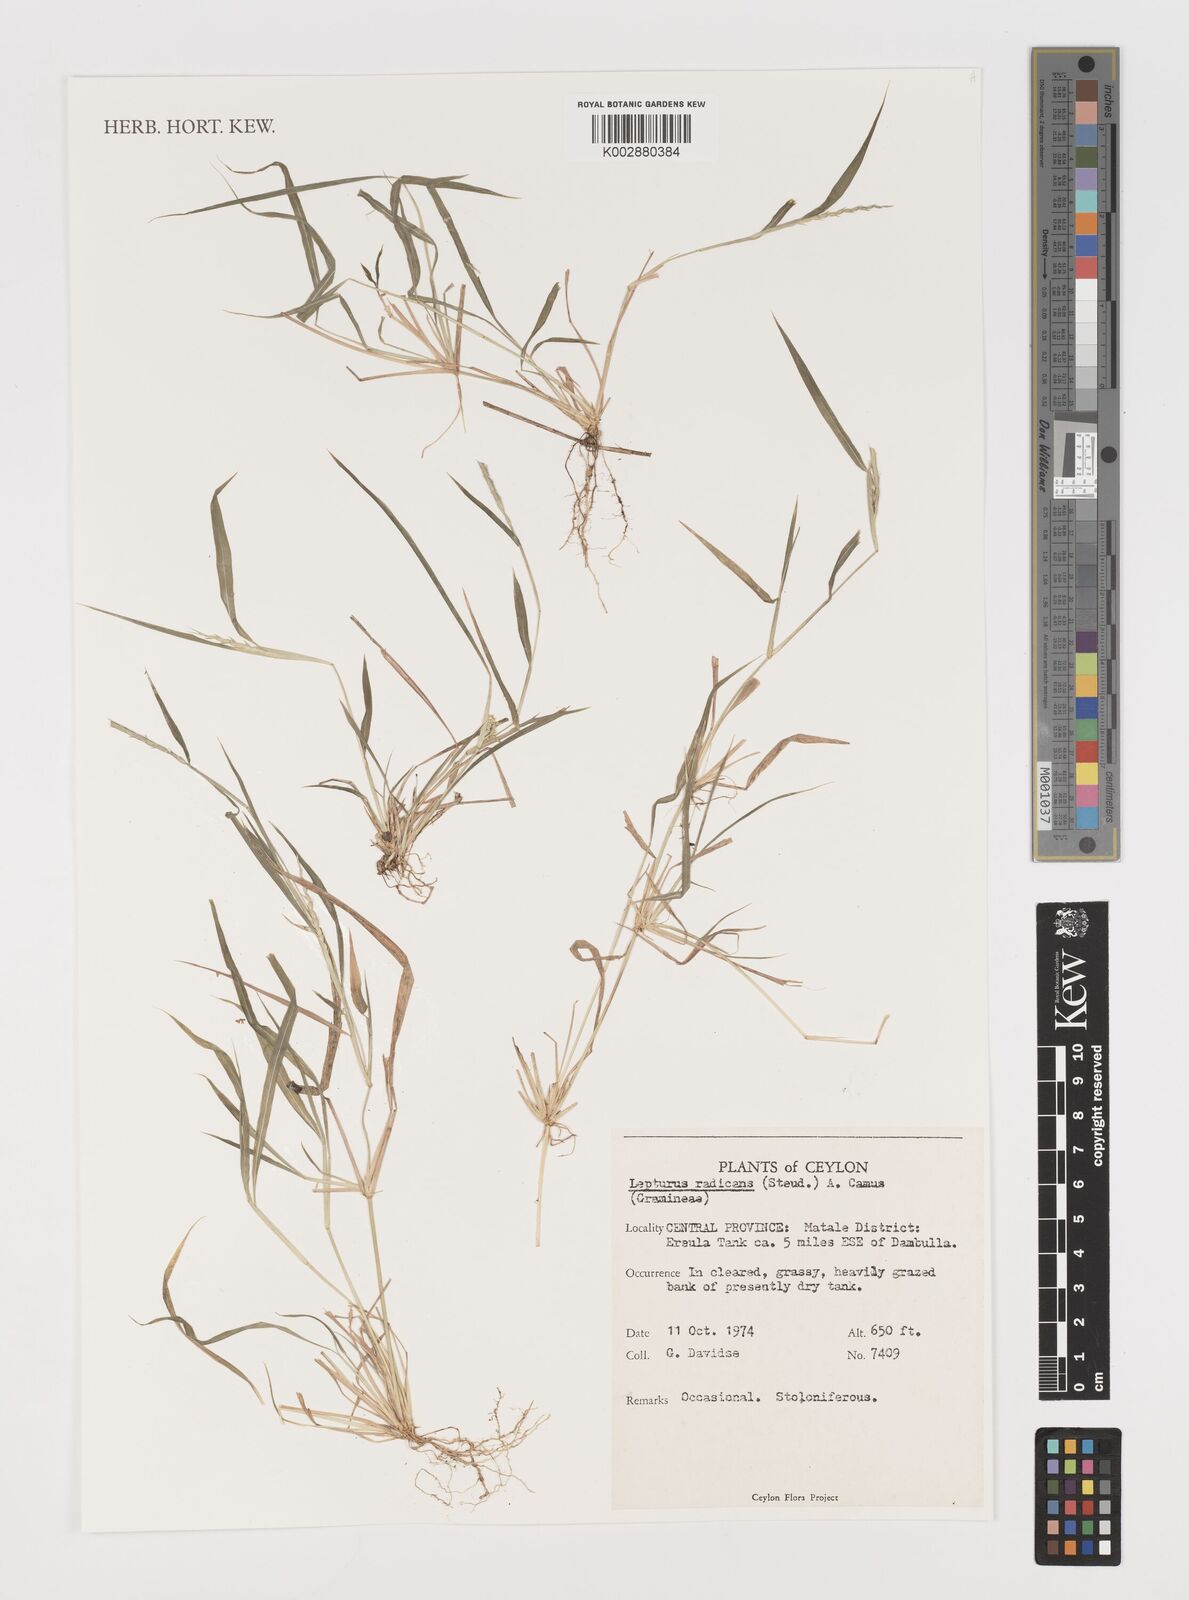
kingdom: Plantae
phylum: Tracheophyta
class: Liliopsida
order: Poales
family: Poaceae
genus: Lepturus
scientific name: Lepturus radicans
